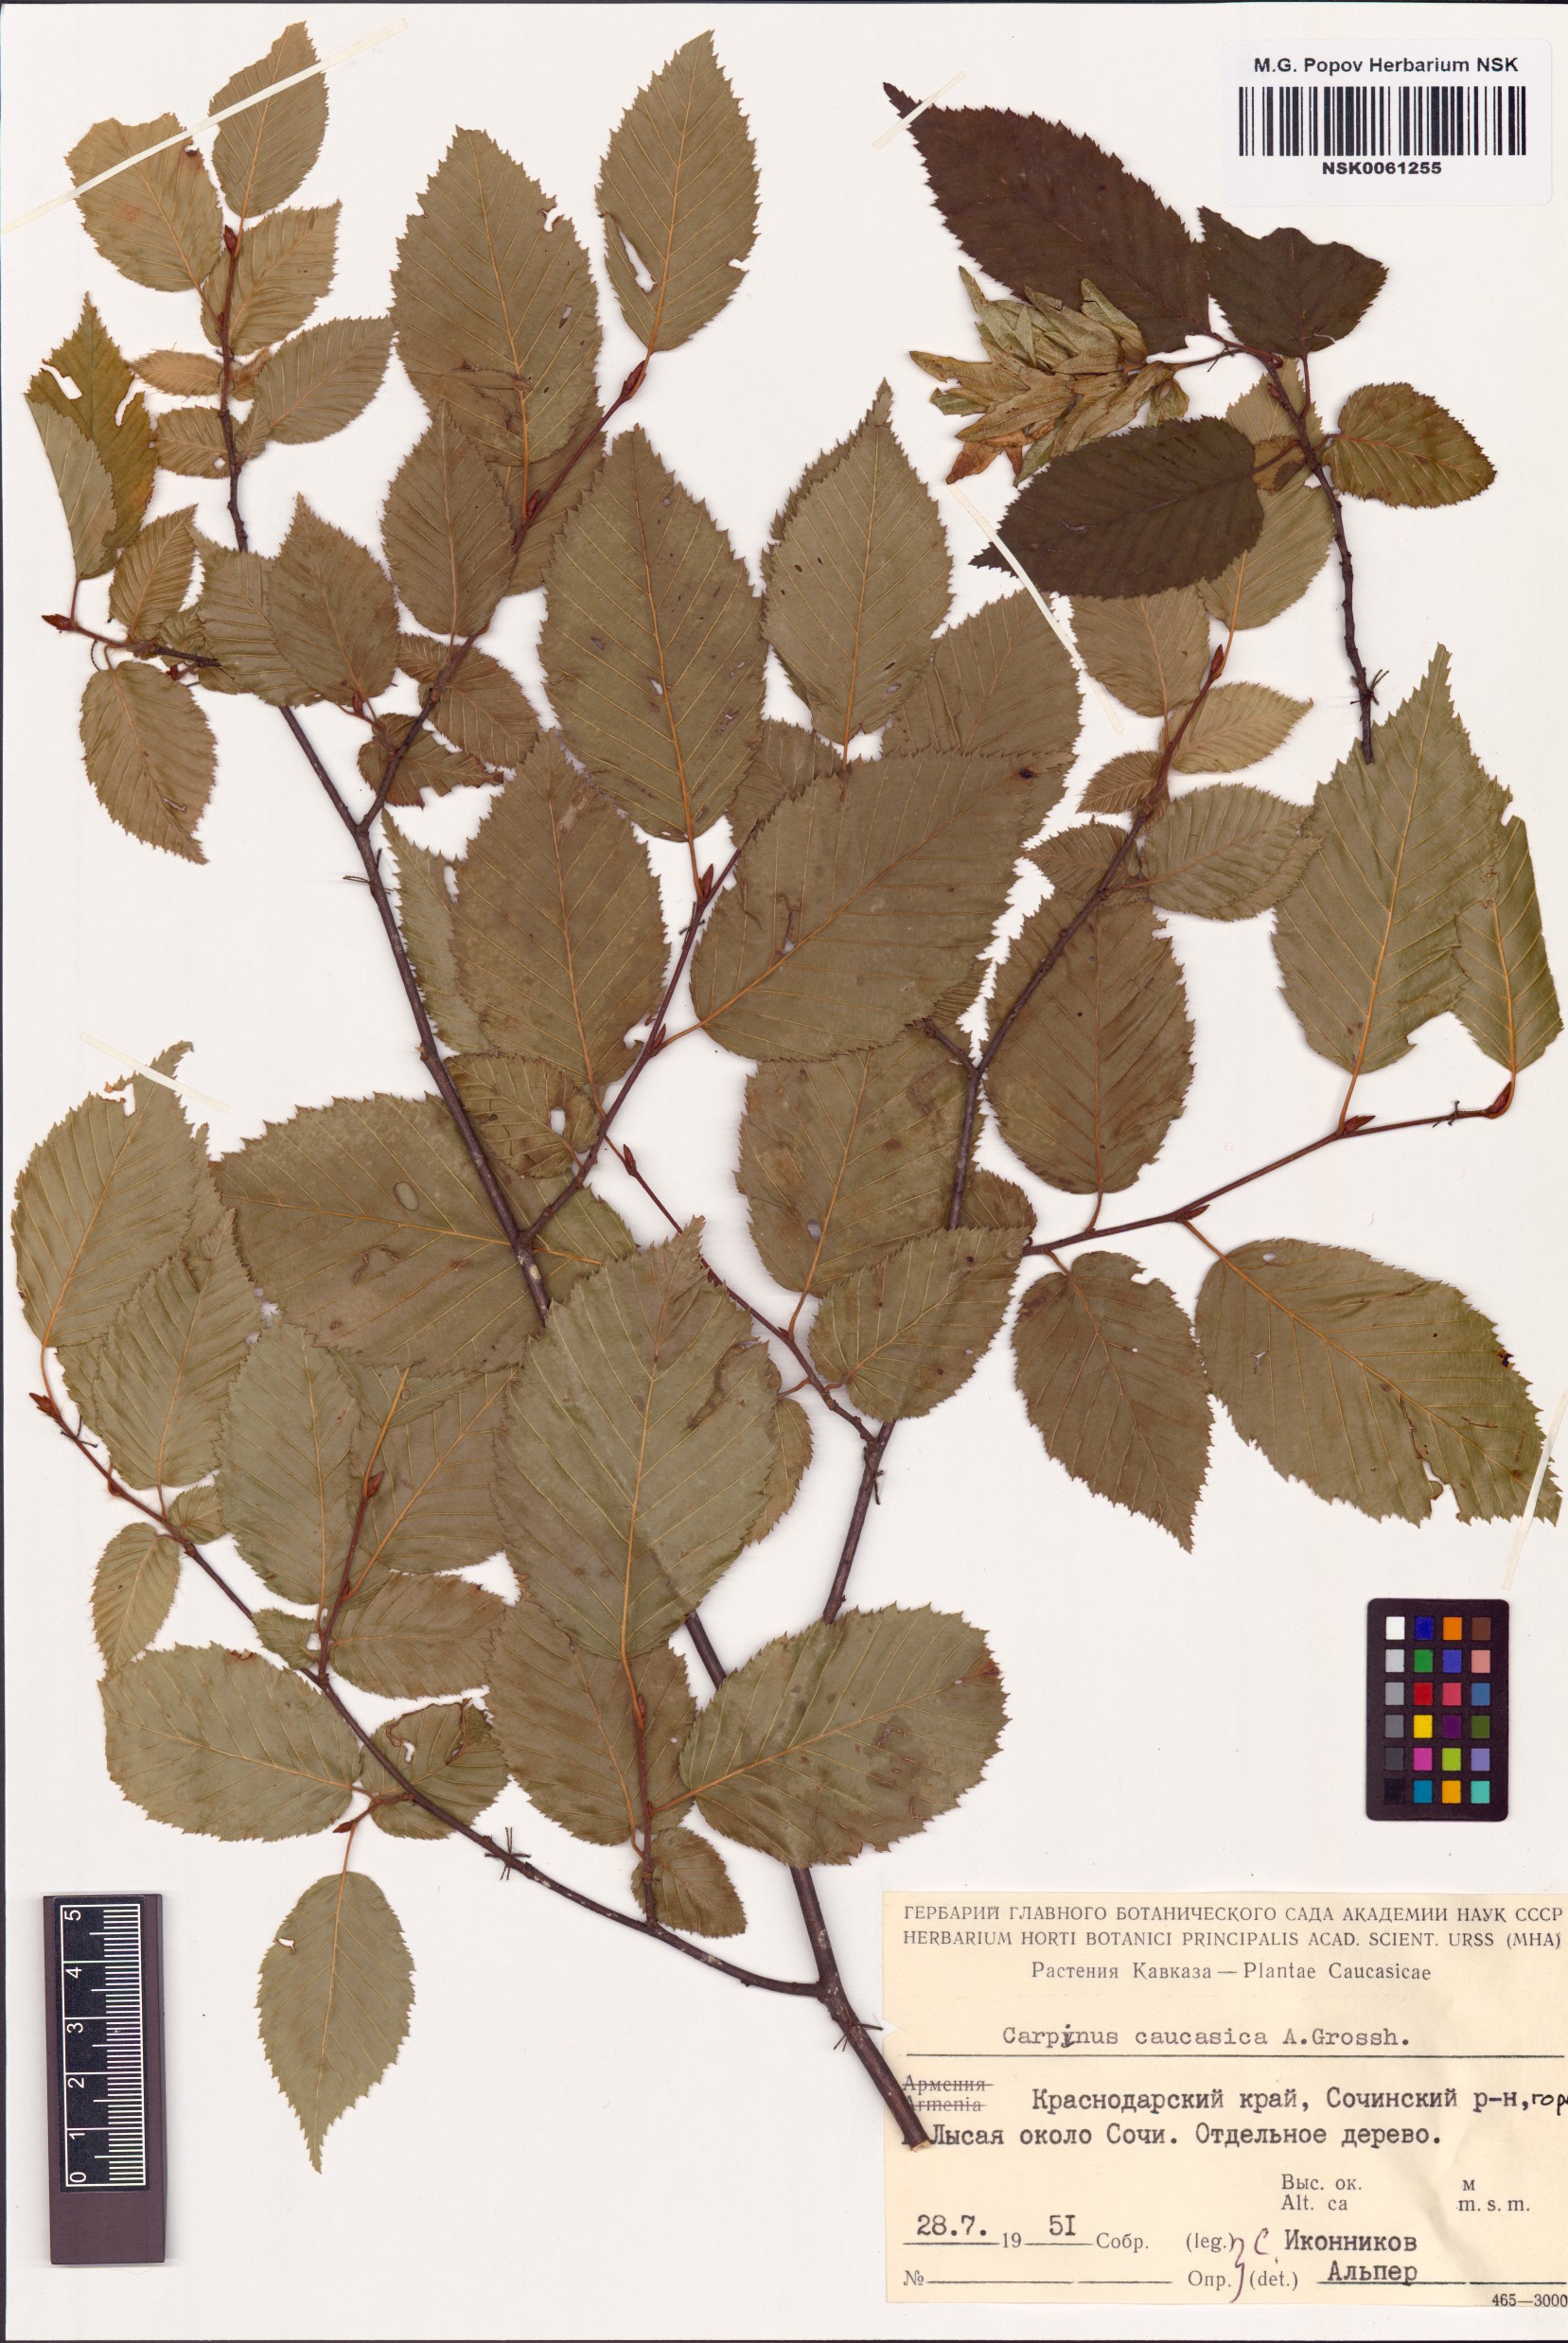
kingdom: Plantae
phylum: Tracheophyta
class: Magnoliopsida
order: Fagales
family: Betulaceae
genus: Carpinus
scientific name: Carpinus betulus
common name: Hornbeam
